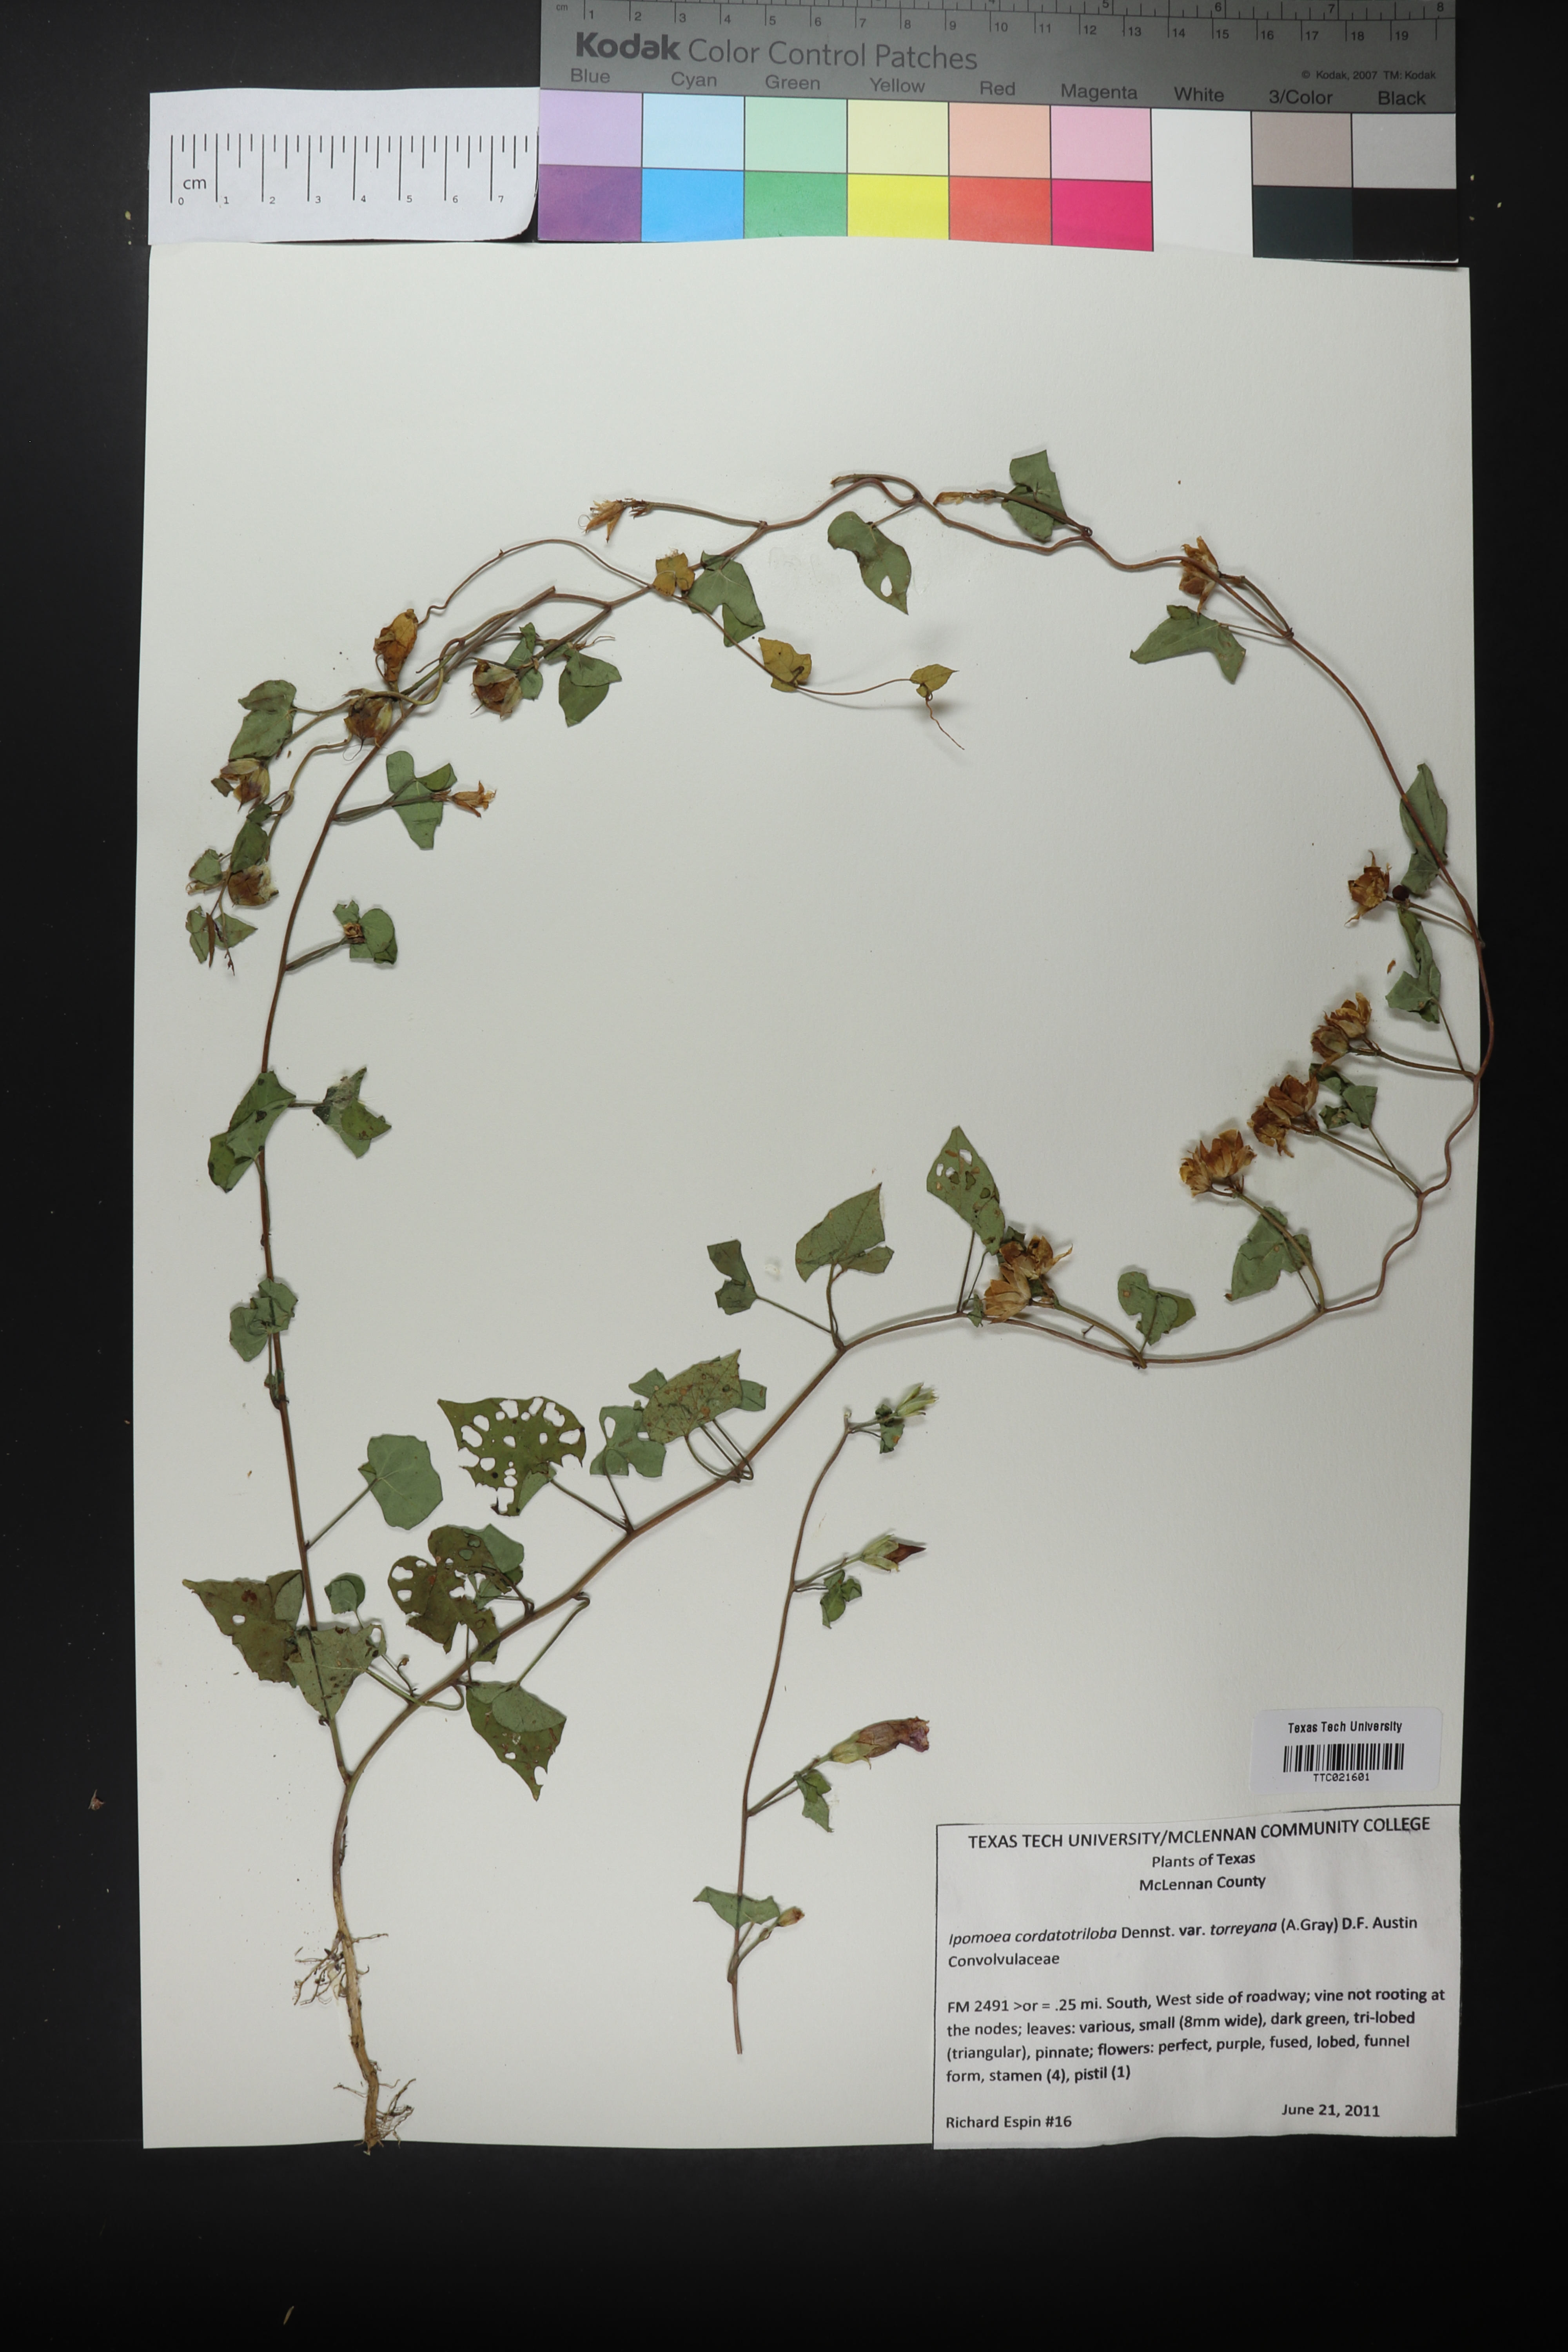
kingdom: Plantae
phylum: Tracheophyta
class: Magnoliopsida
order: Solanales
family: Convolvulaceae
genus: Ipomoea
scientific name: Ipomoea cordatotriloba
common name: Cotton morning glory
